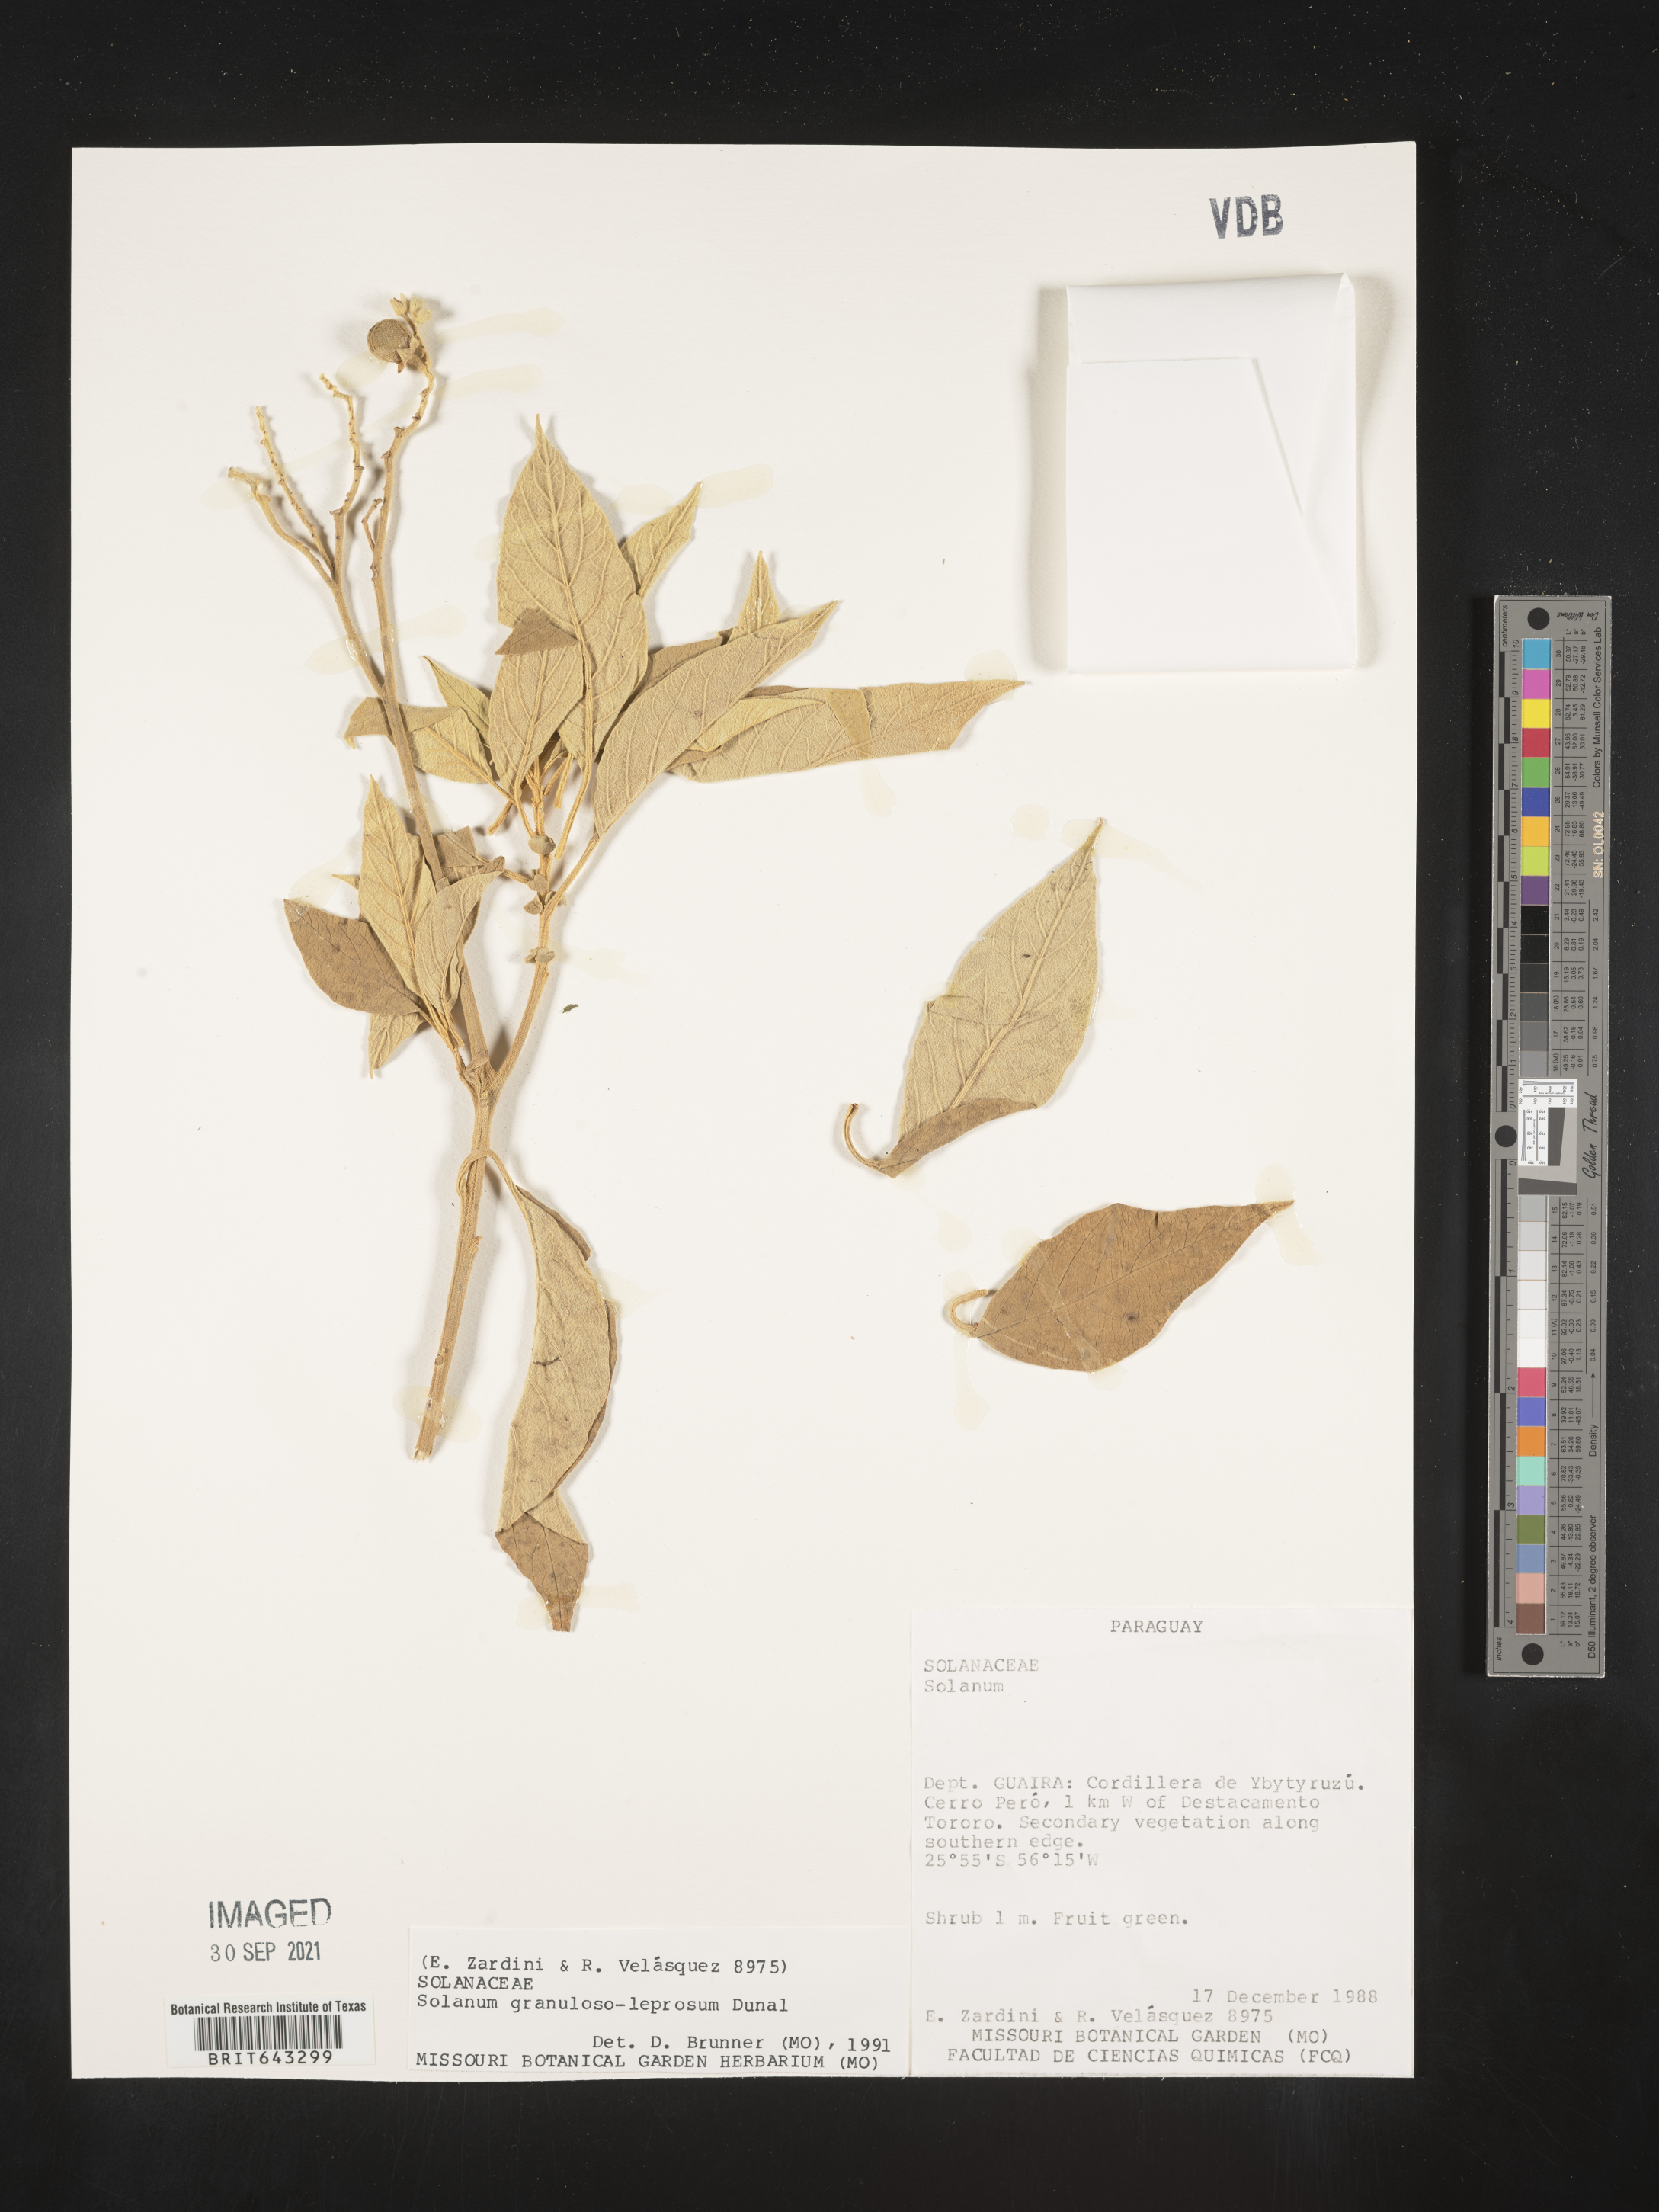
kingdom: Plantae
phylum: Tracheophyta
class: Magnoliopsida
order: Solanales
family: Solanaceae
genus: Solanum
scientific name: Solanum
